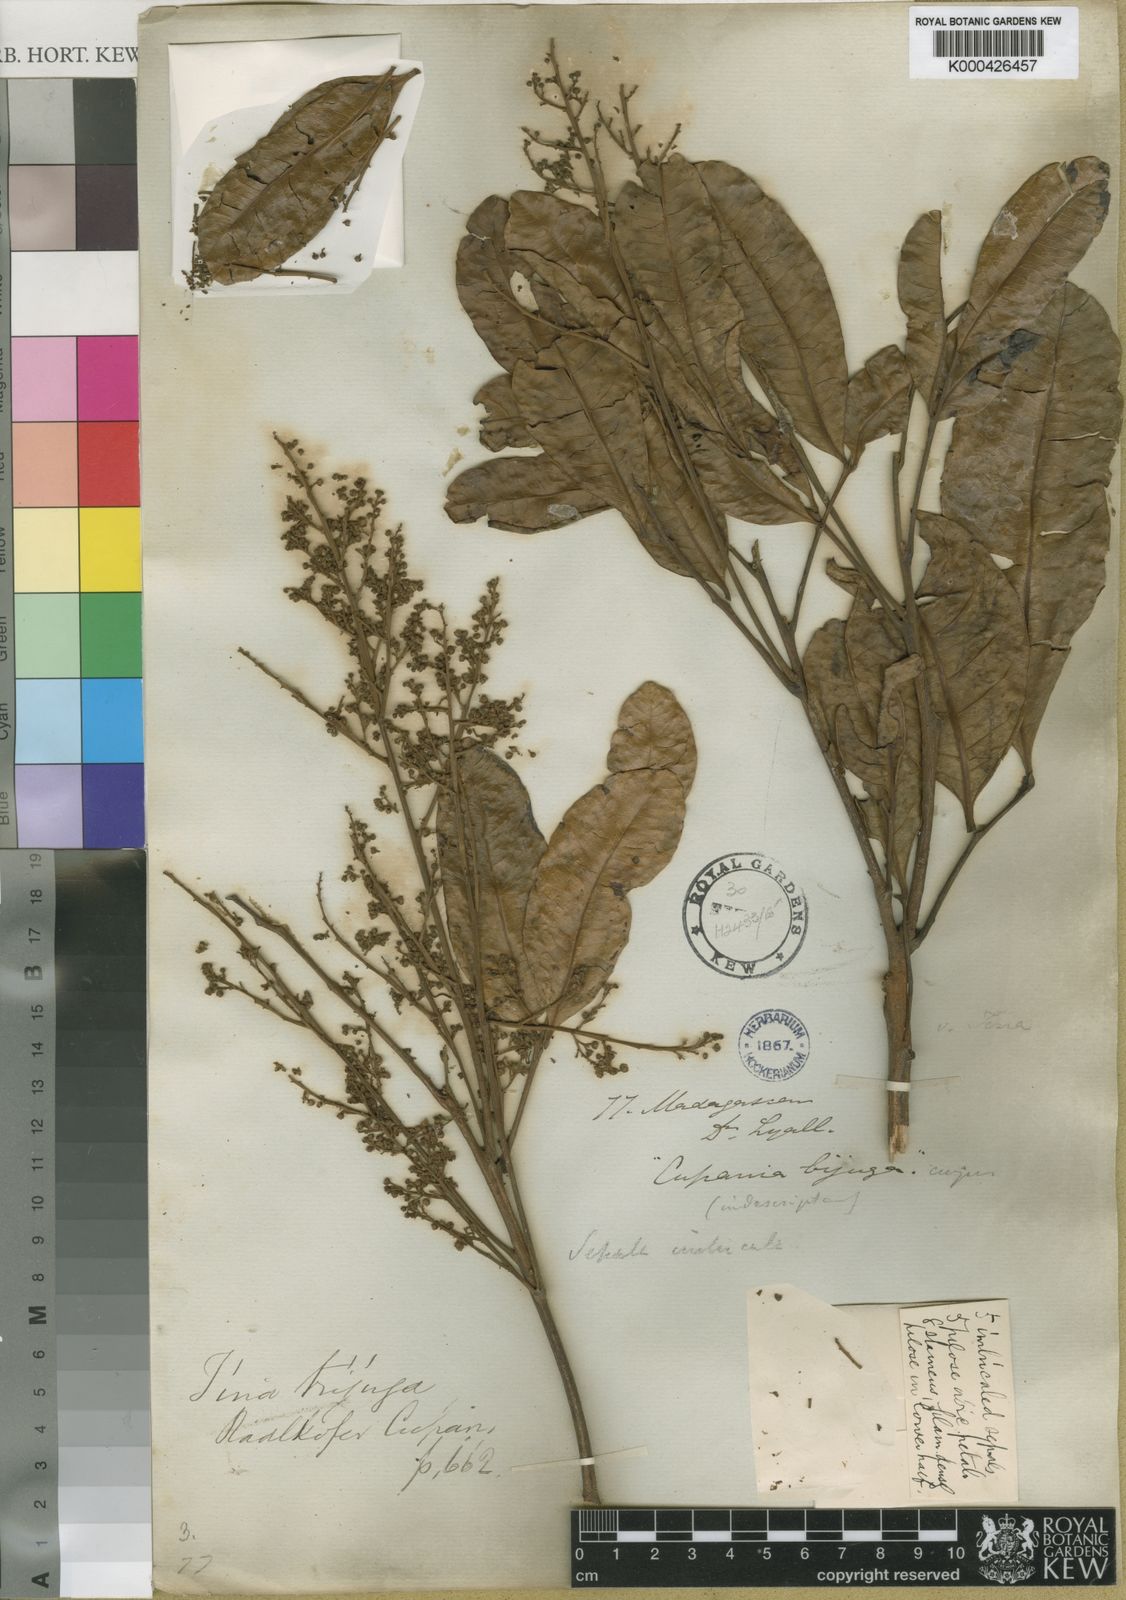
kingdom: Plantae
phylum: Tracheophyta
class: Magnoliopsida
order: Sapindales
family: Sapindaceae
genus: Tina
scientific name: Tina striata
